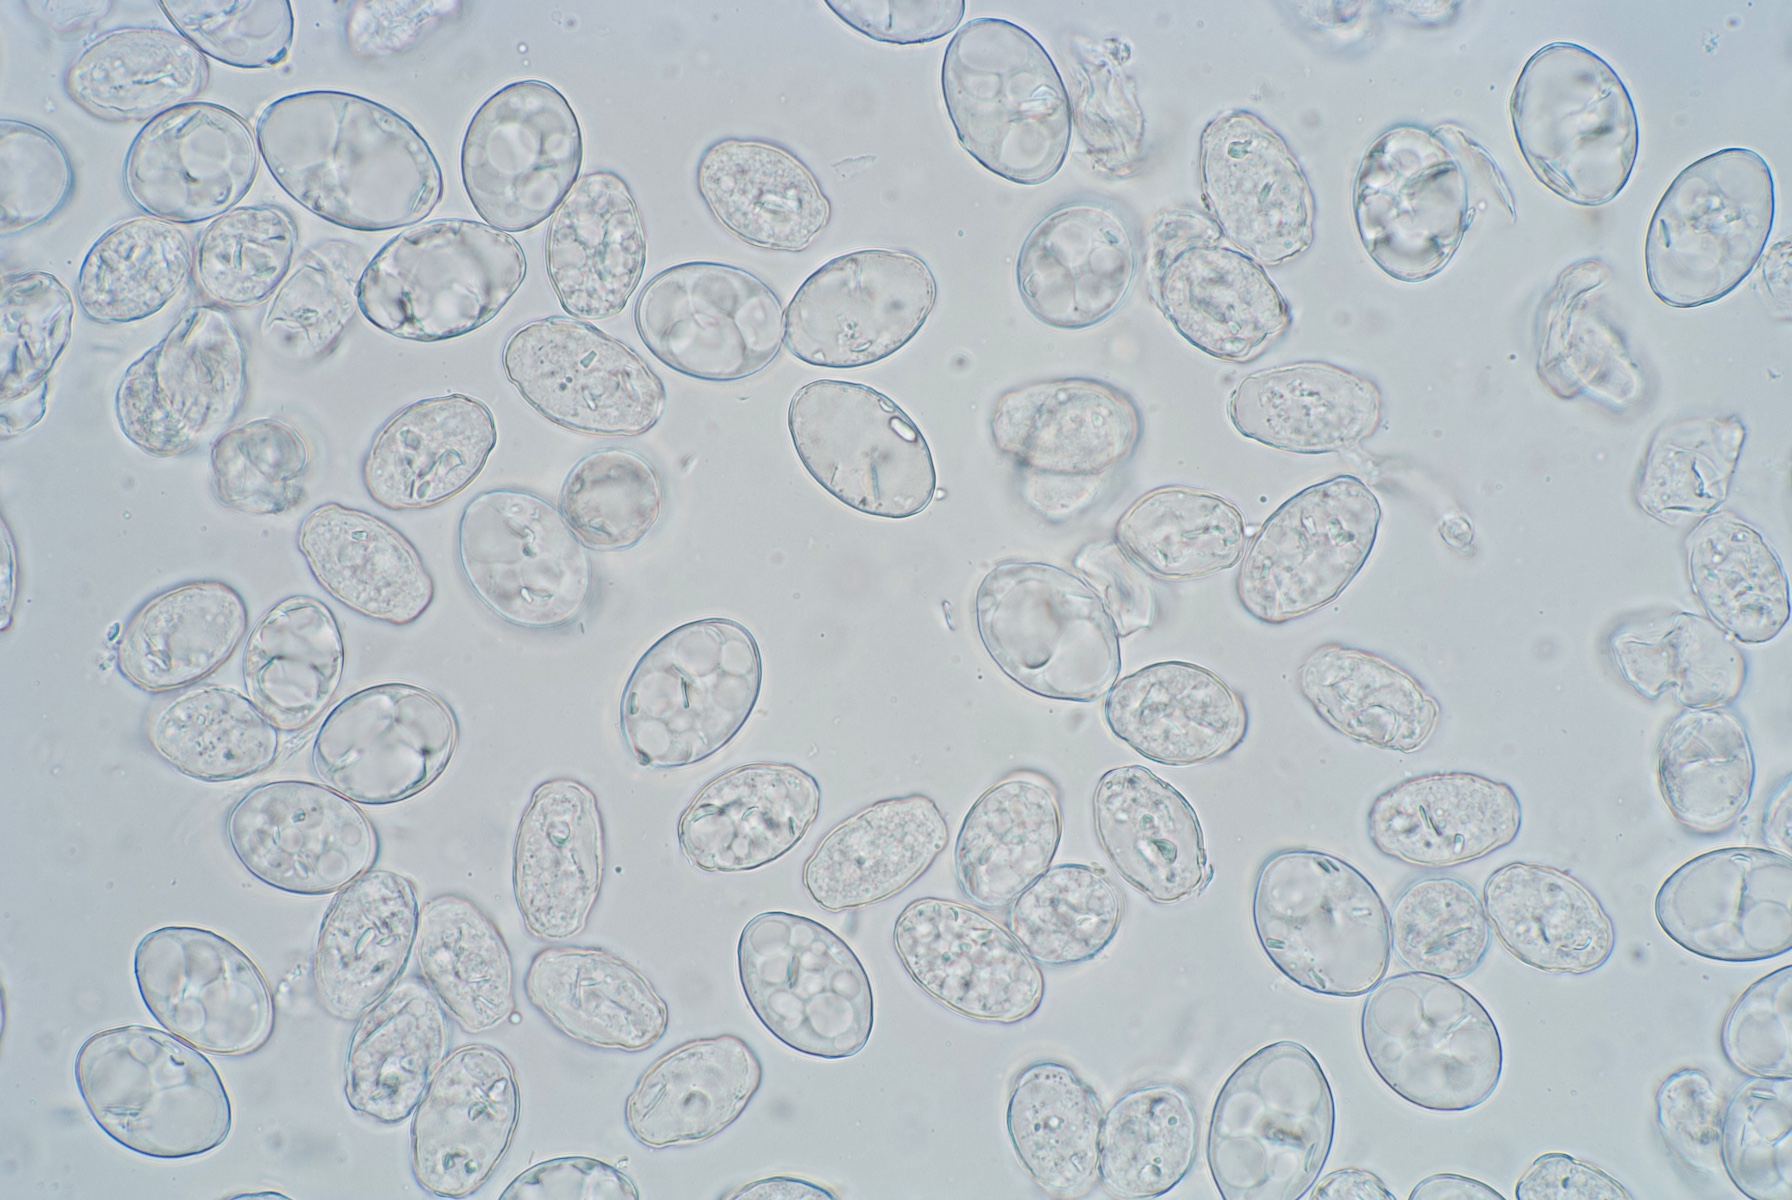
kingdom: Fungi
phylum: Ascomycota
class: Leotiomycetes
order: Helotiales
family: Erysiphaceae
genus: Podosphaera
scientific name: Podosphaera mors-uvae
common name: American gooseberry mildew
